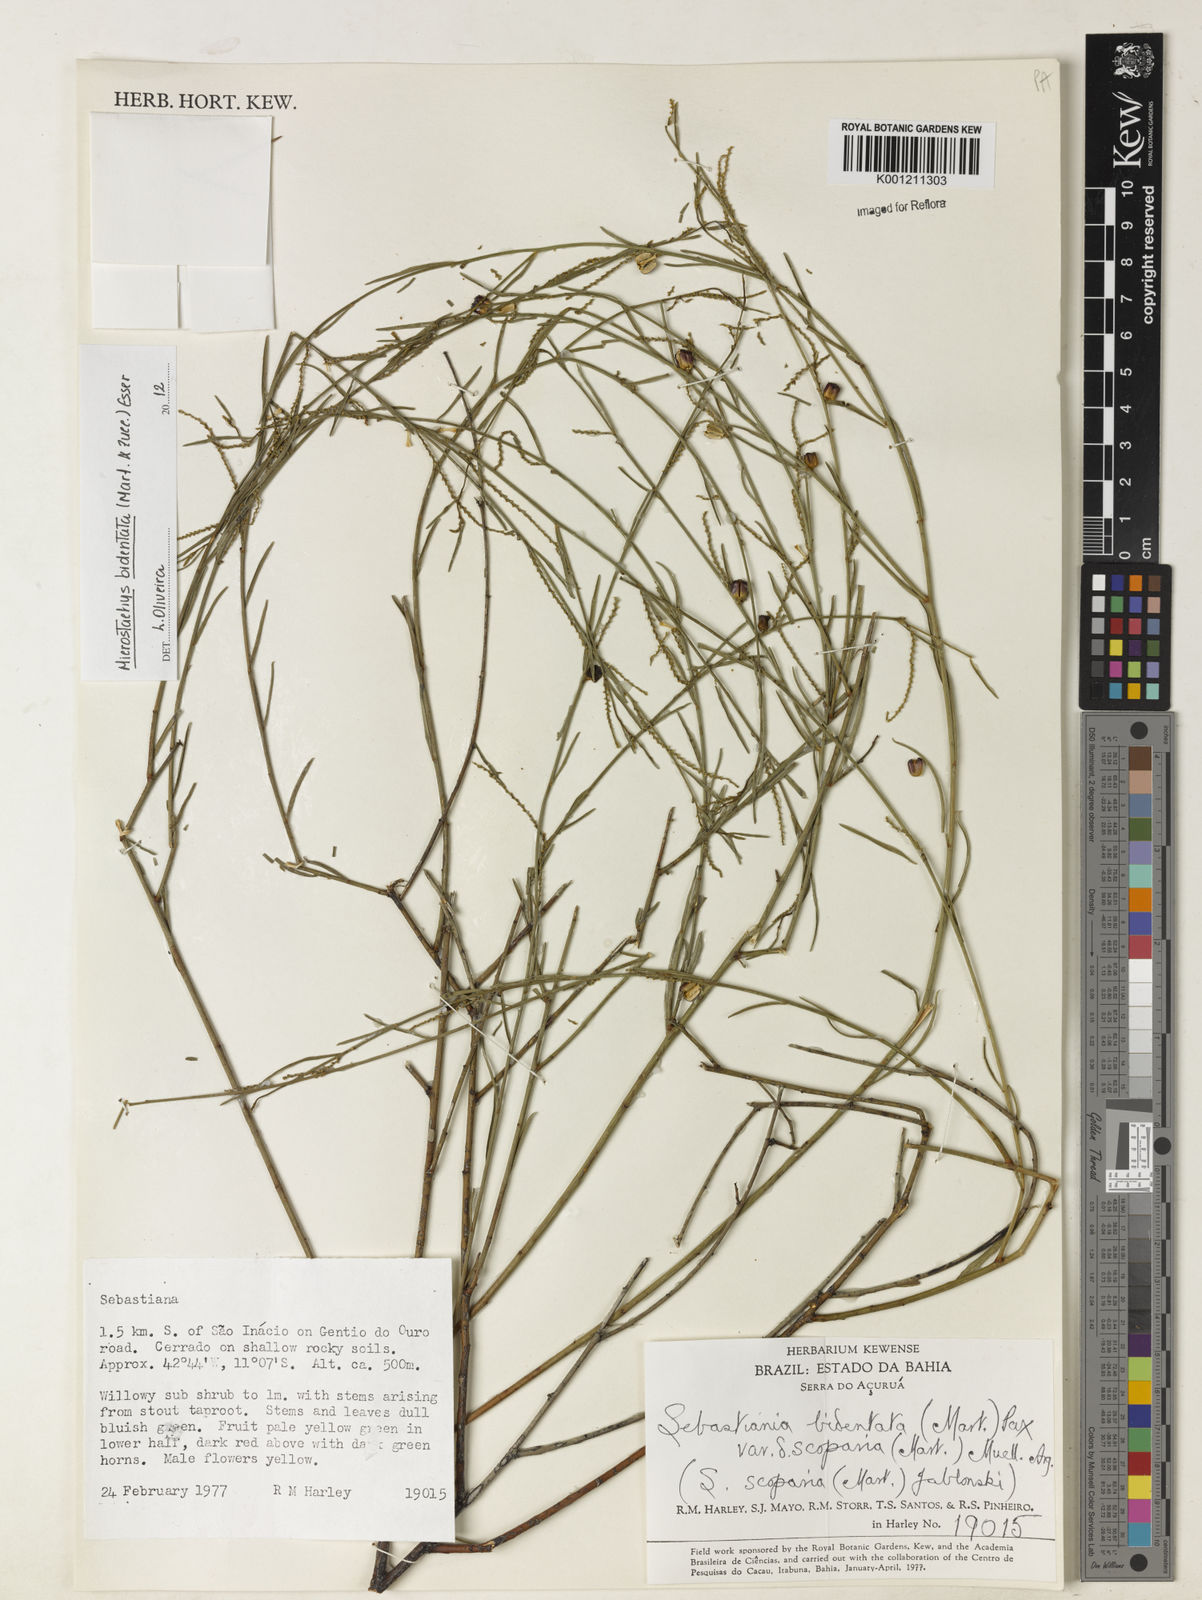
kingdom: Plantae
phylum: Tracheophyta
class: Magnoliopsida
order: Malpighiales
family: Euphorbiaceae
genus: Microstachys
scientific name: Microstachys bidentata
